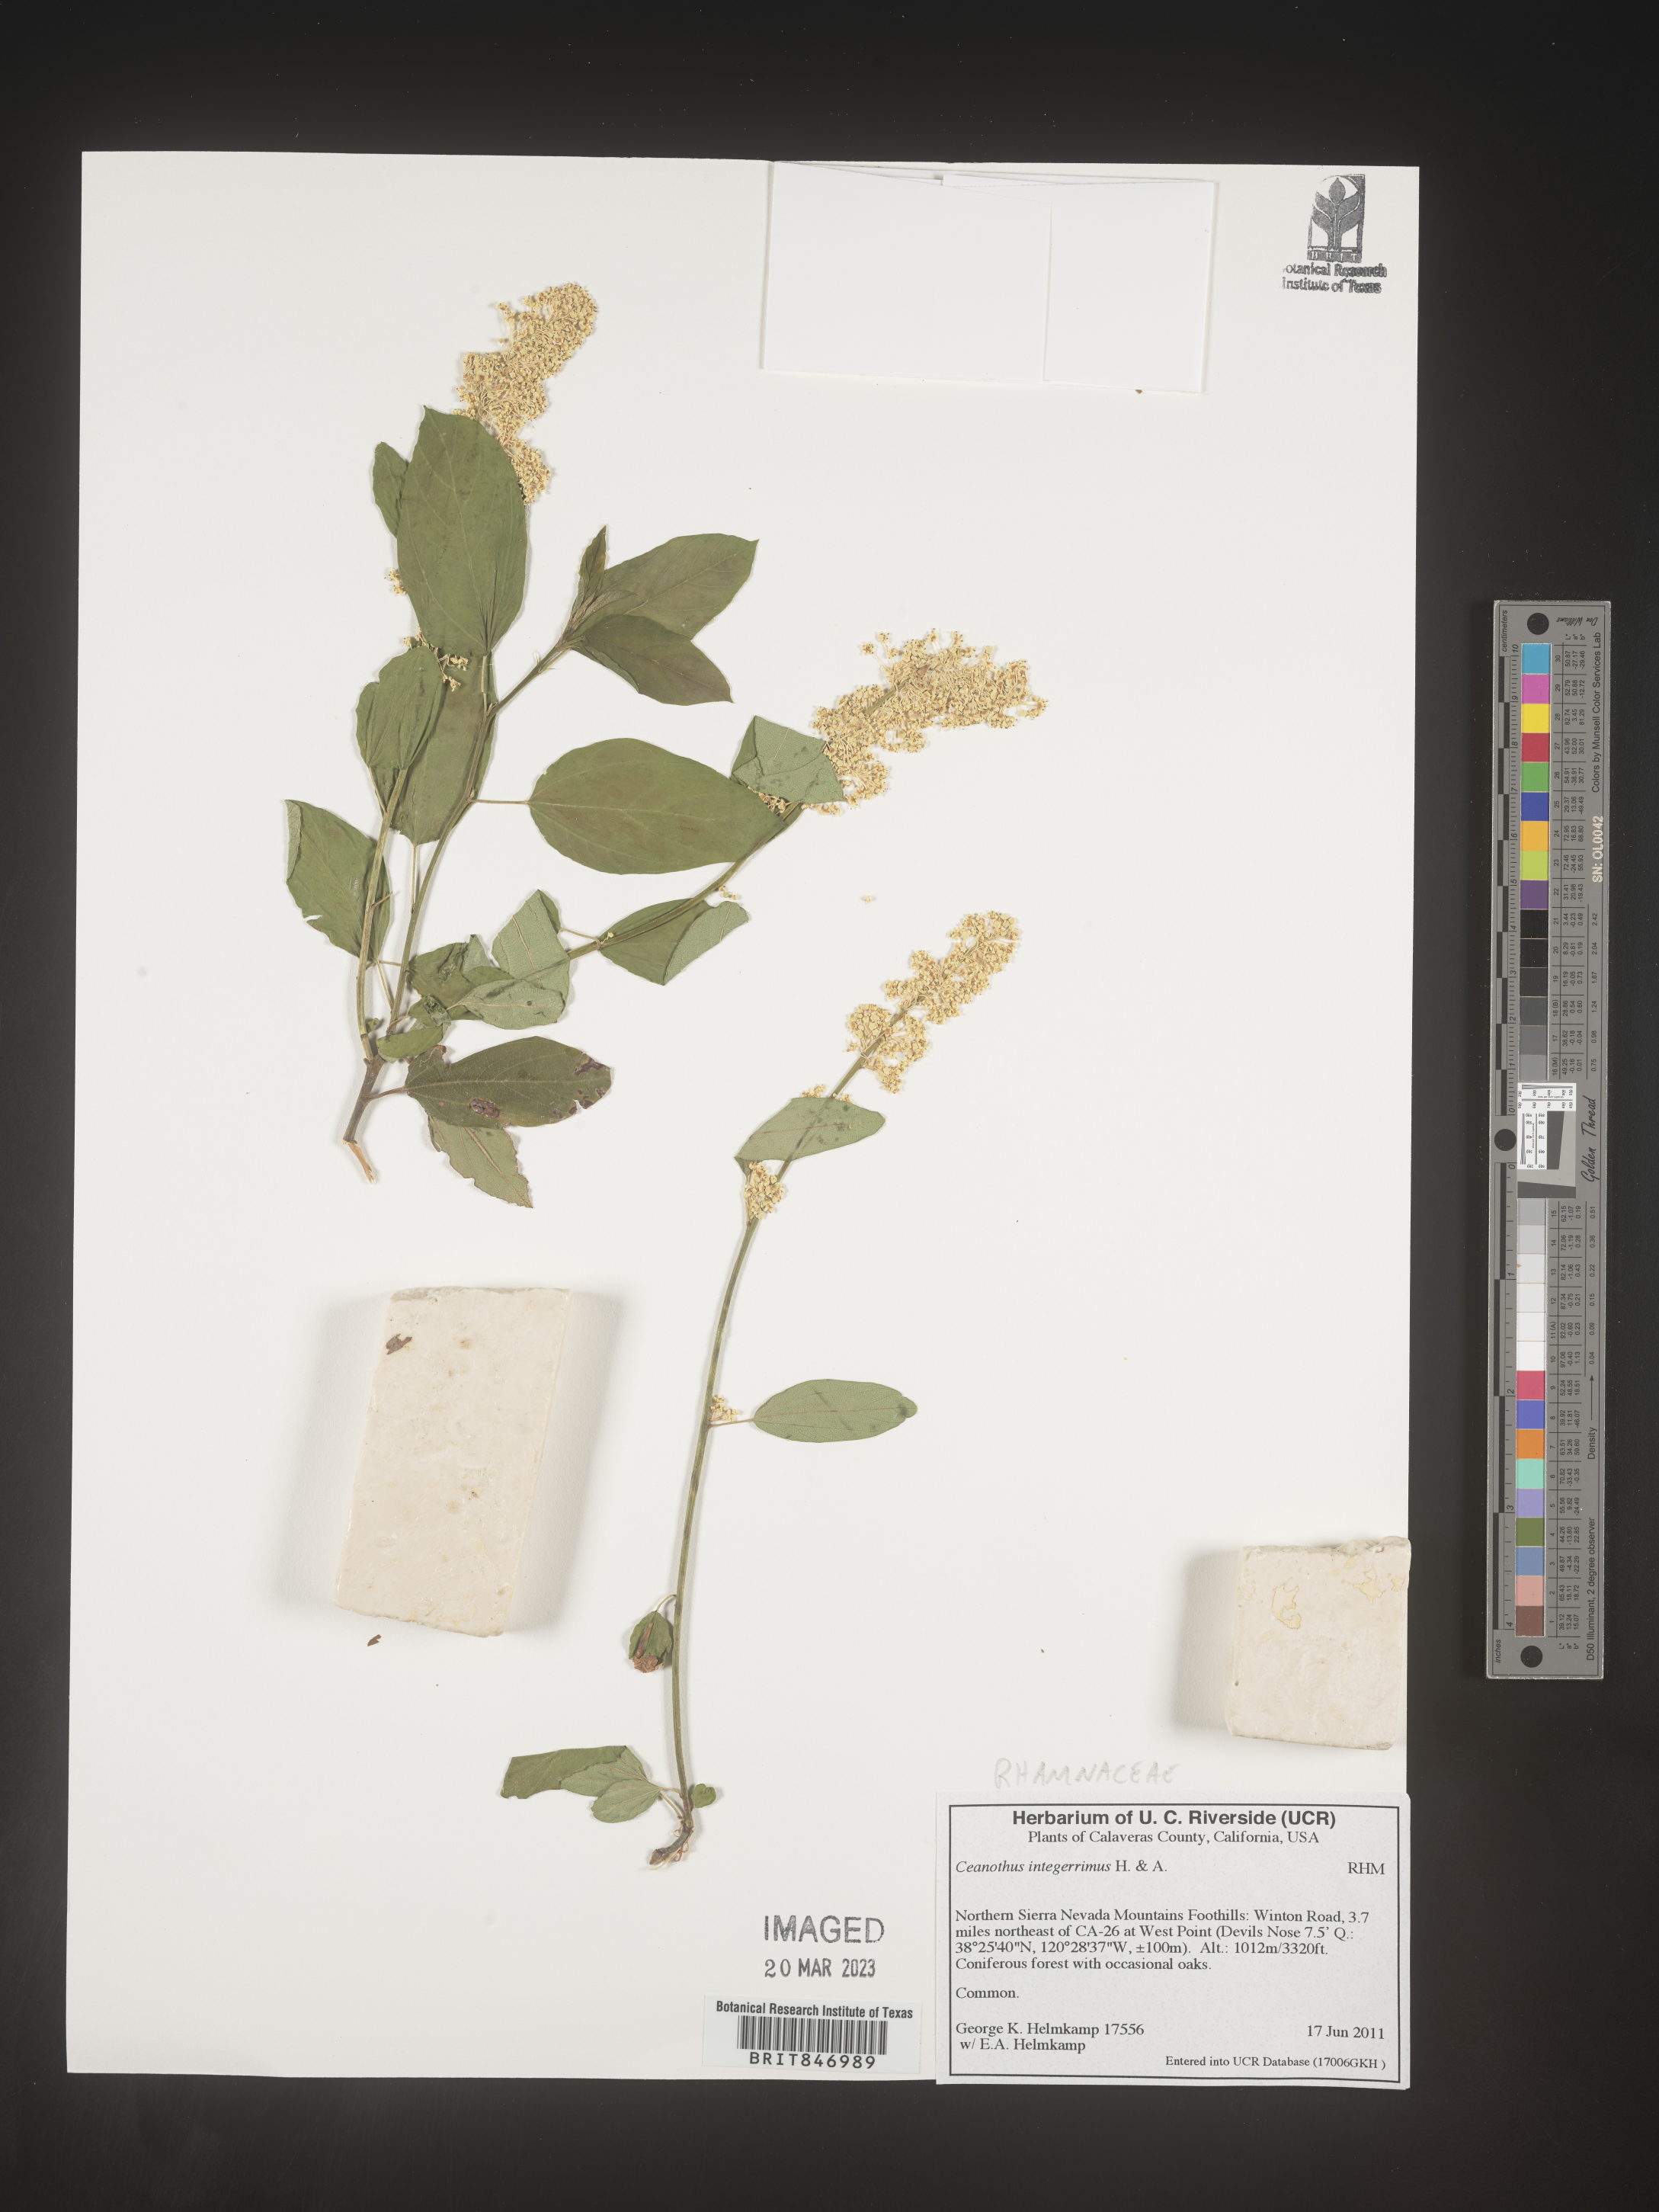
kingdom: Plantae
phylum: Tracheophyta
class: Magnoliopsida
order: Rosales
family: Rhamnaceae
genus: Ceanothus
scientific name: Ceanothus integerrimus
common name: Deerbrush ceanothus
